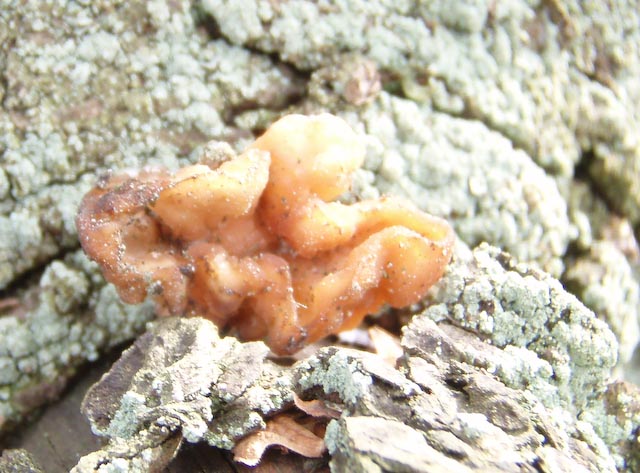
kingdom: Fungi
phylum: Basidiomycota
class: Tremellomycetes
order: Tremellales
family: Naemateliaceae
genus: Naematelia
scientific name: Naematelia encephala
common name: fyrre-bævresvamp
